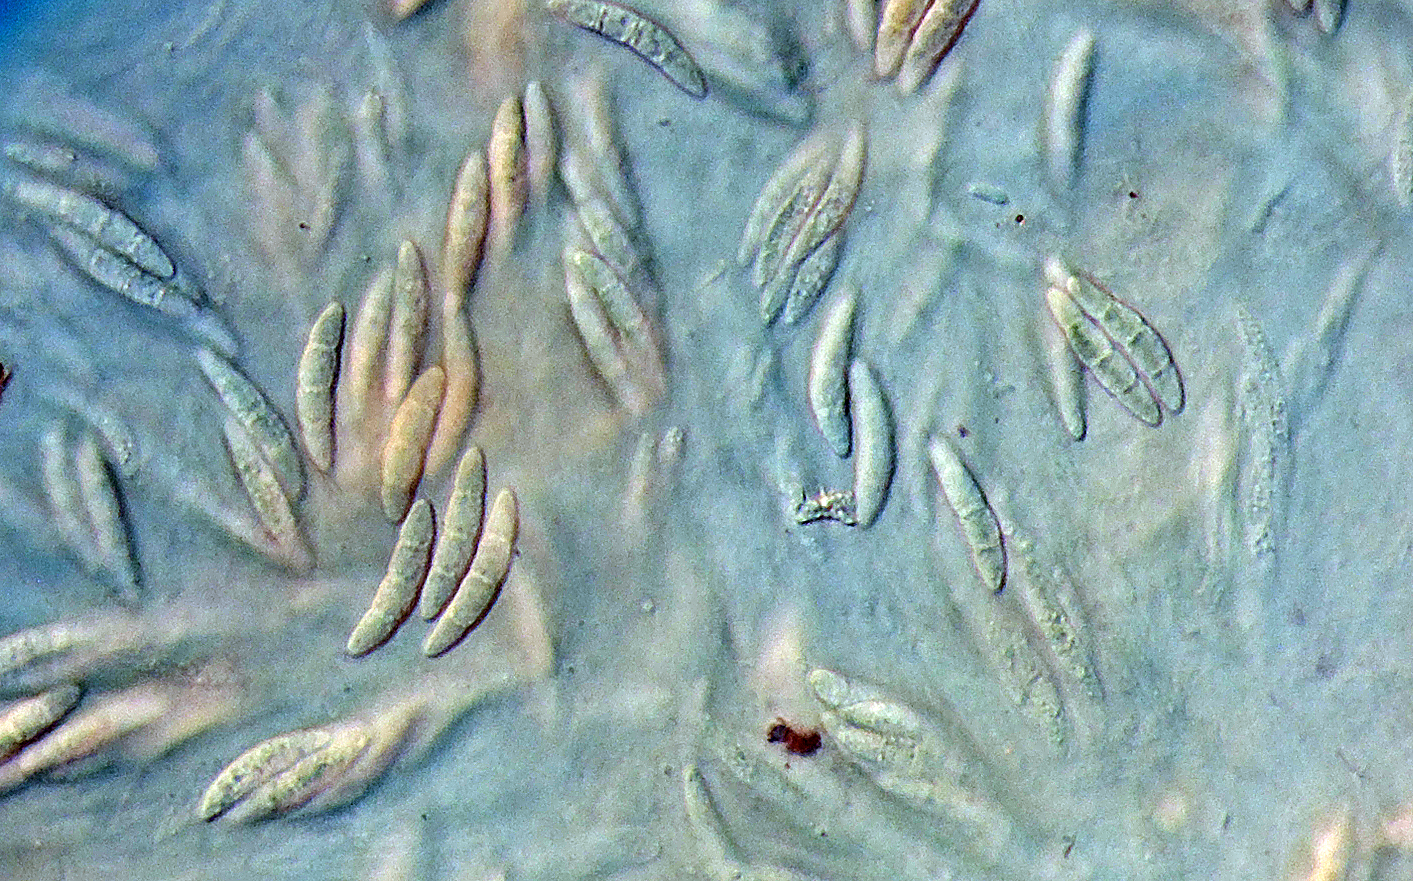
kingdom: Fungi
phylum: Ascomycota
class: Sordariomycetes
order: Hypocreales
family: Nectriaceae
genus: Fusarium
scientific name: Fusarium graminearum
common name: Gibberella stalk rot
